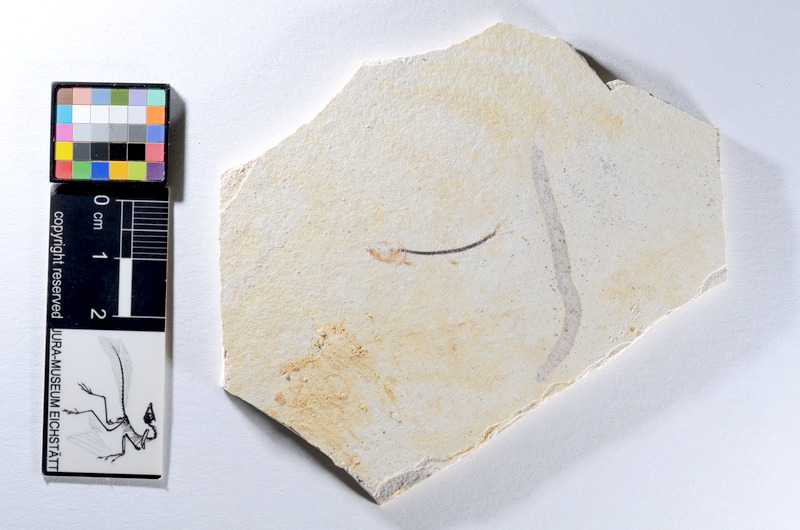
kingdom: Animalia
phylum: Chordata
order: Salmoniformes
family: Orthogonikleithridae
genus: Orthogonikleithrus
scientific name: Orthogonikleithrus hoelli
